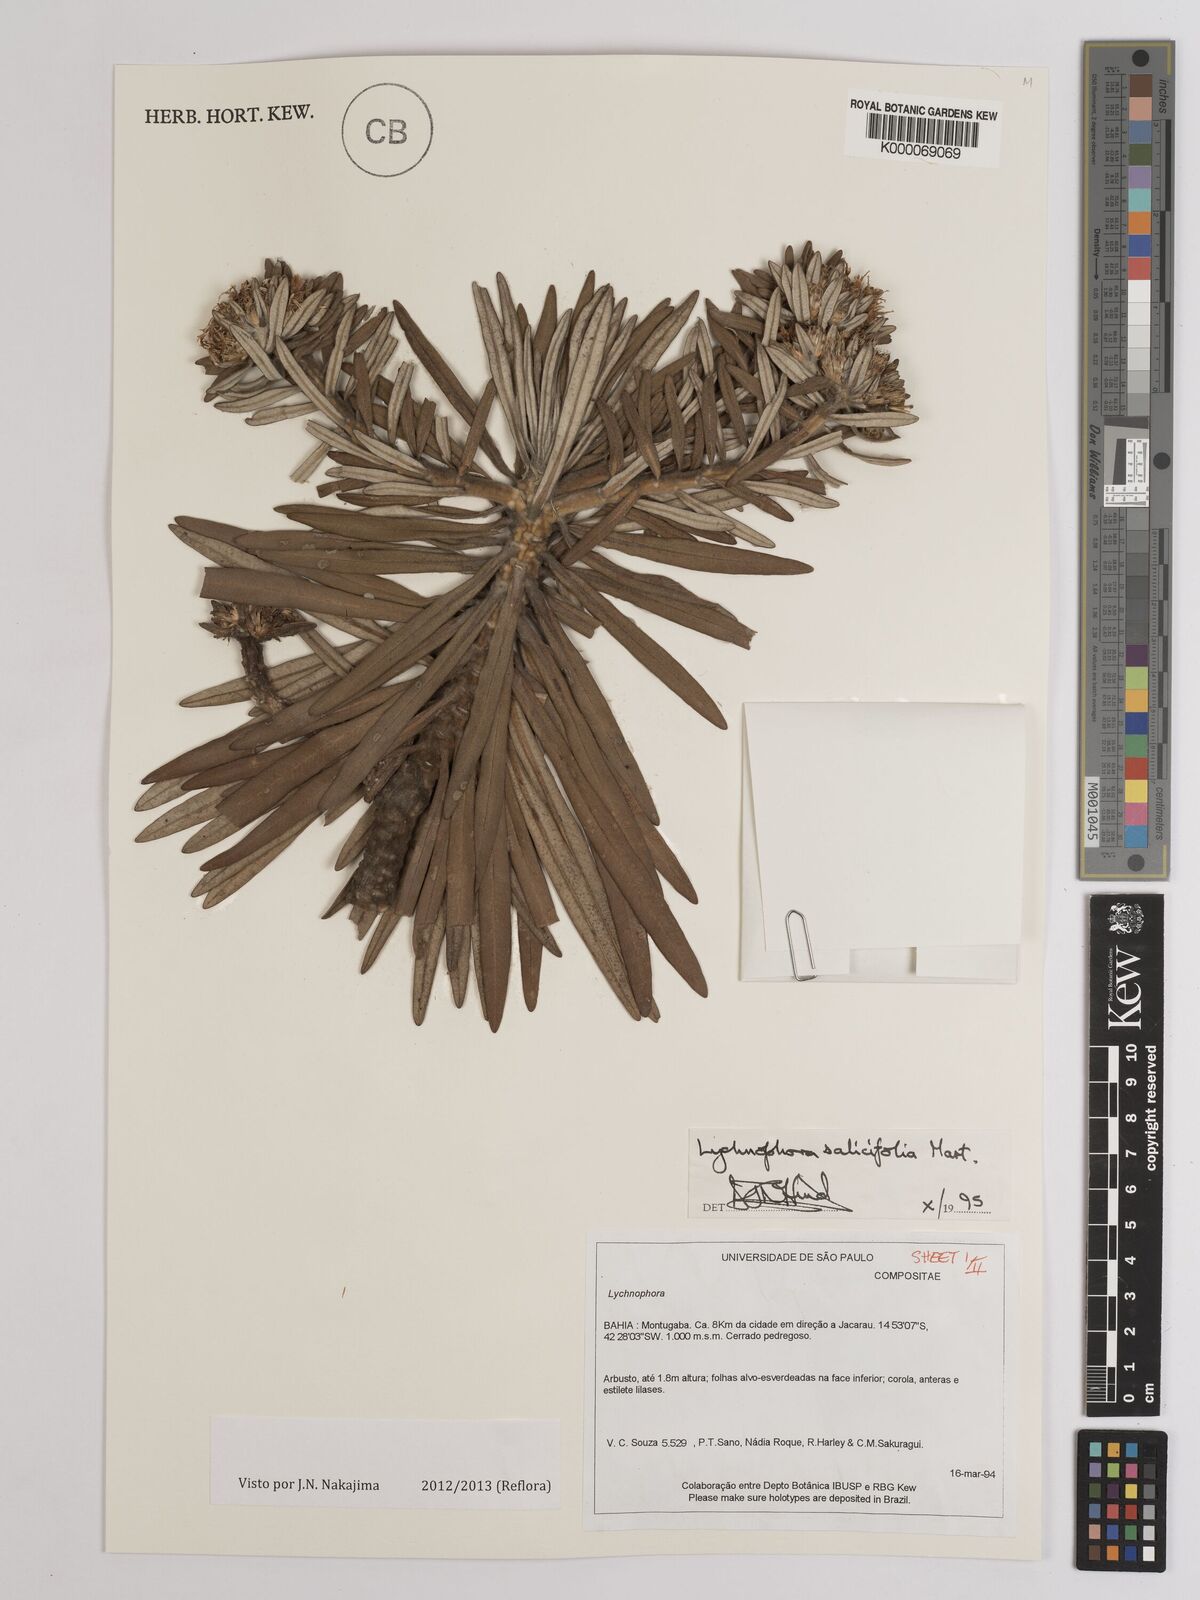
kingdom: Plantae
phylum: Tracheophyta
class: Magnoliopsida
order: Asterales
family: Asteraceae
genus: Lychnophora
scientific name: Lychnophora salicifolia
